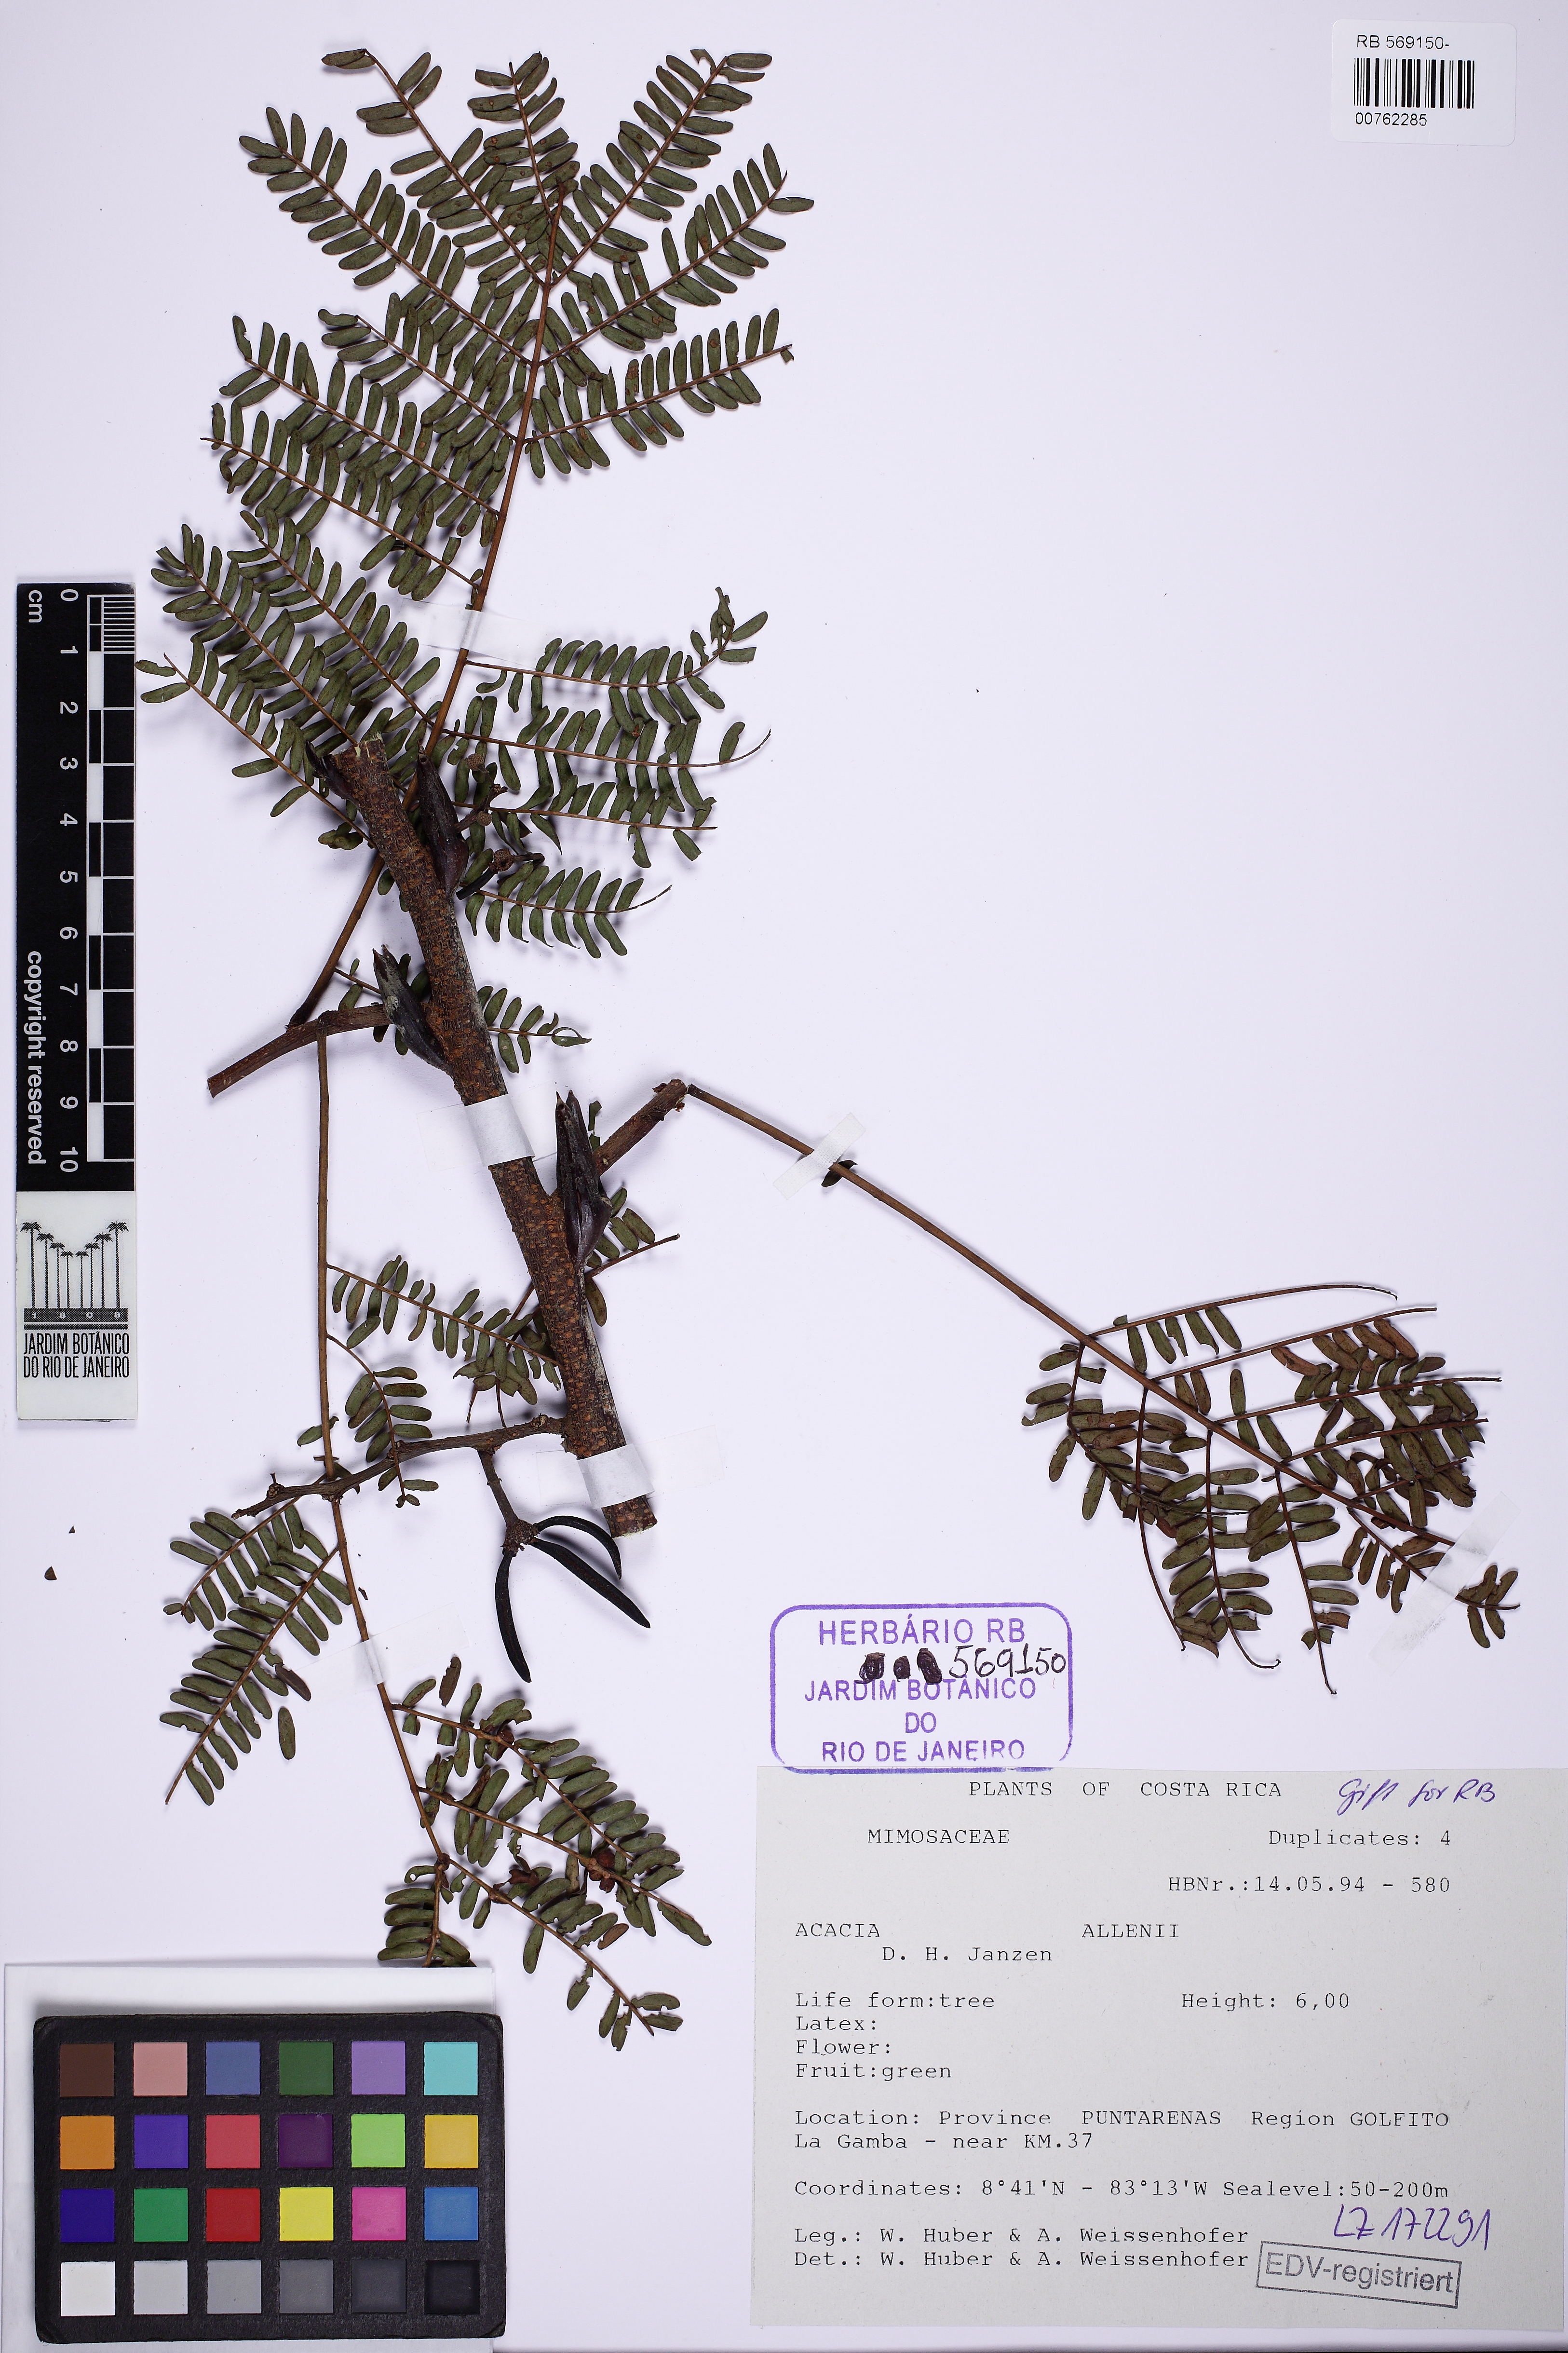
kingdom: Plantae
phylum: Tracheophyta
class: Magnoliopsida
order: Fabales
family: Fabaceae
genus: Vachellia
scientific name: Vachellia allenii
